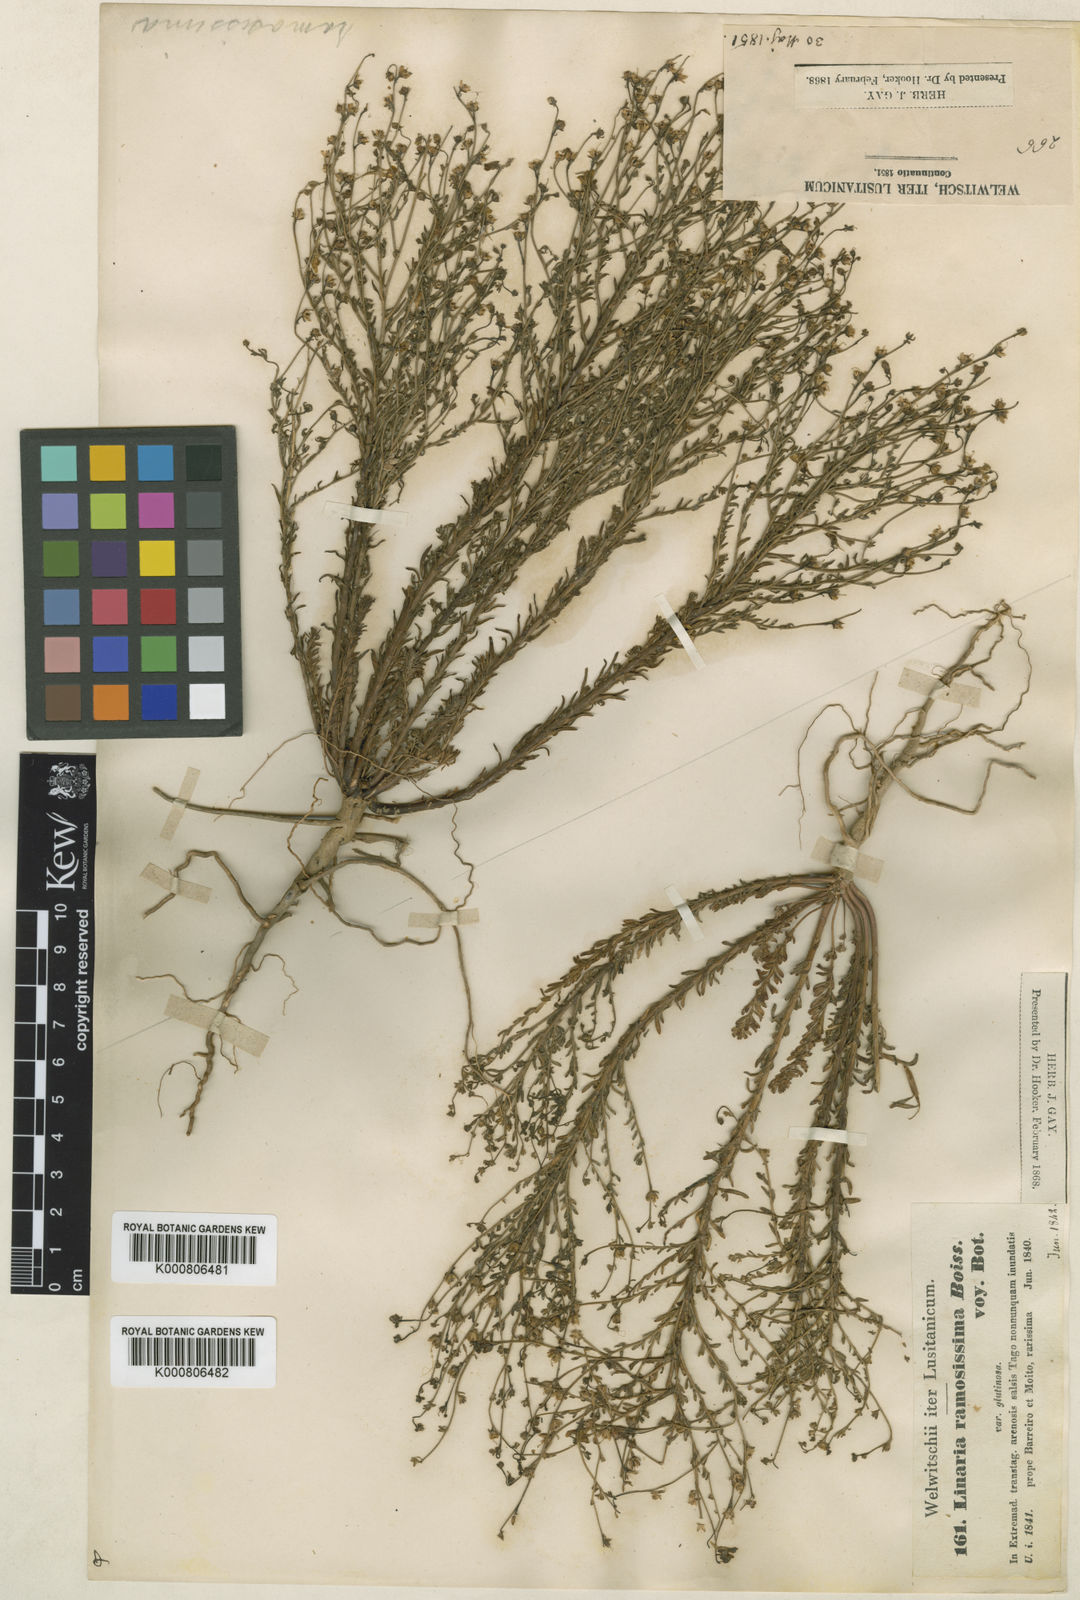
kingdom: Plantae
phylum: Tracheophyta
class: Magnoliopsida
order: Lamiales
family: Plantaginaceae
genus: Linaria
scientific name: Linaria bipunctata
